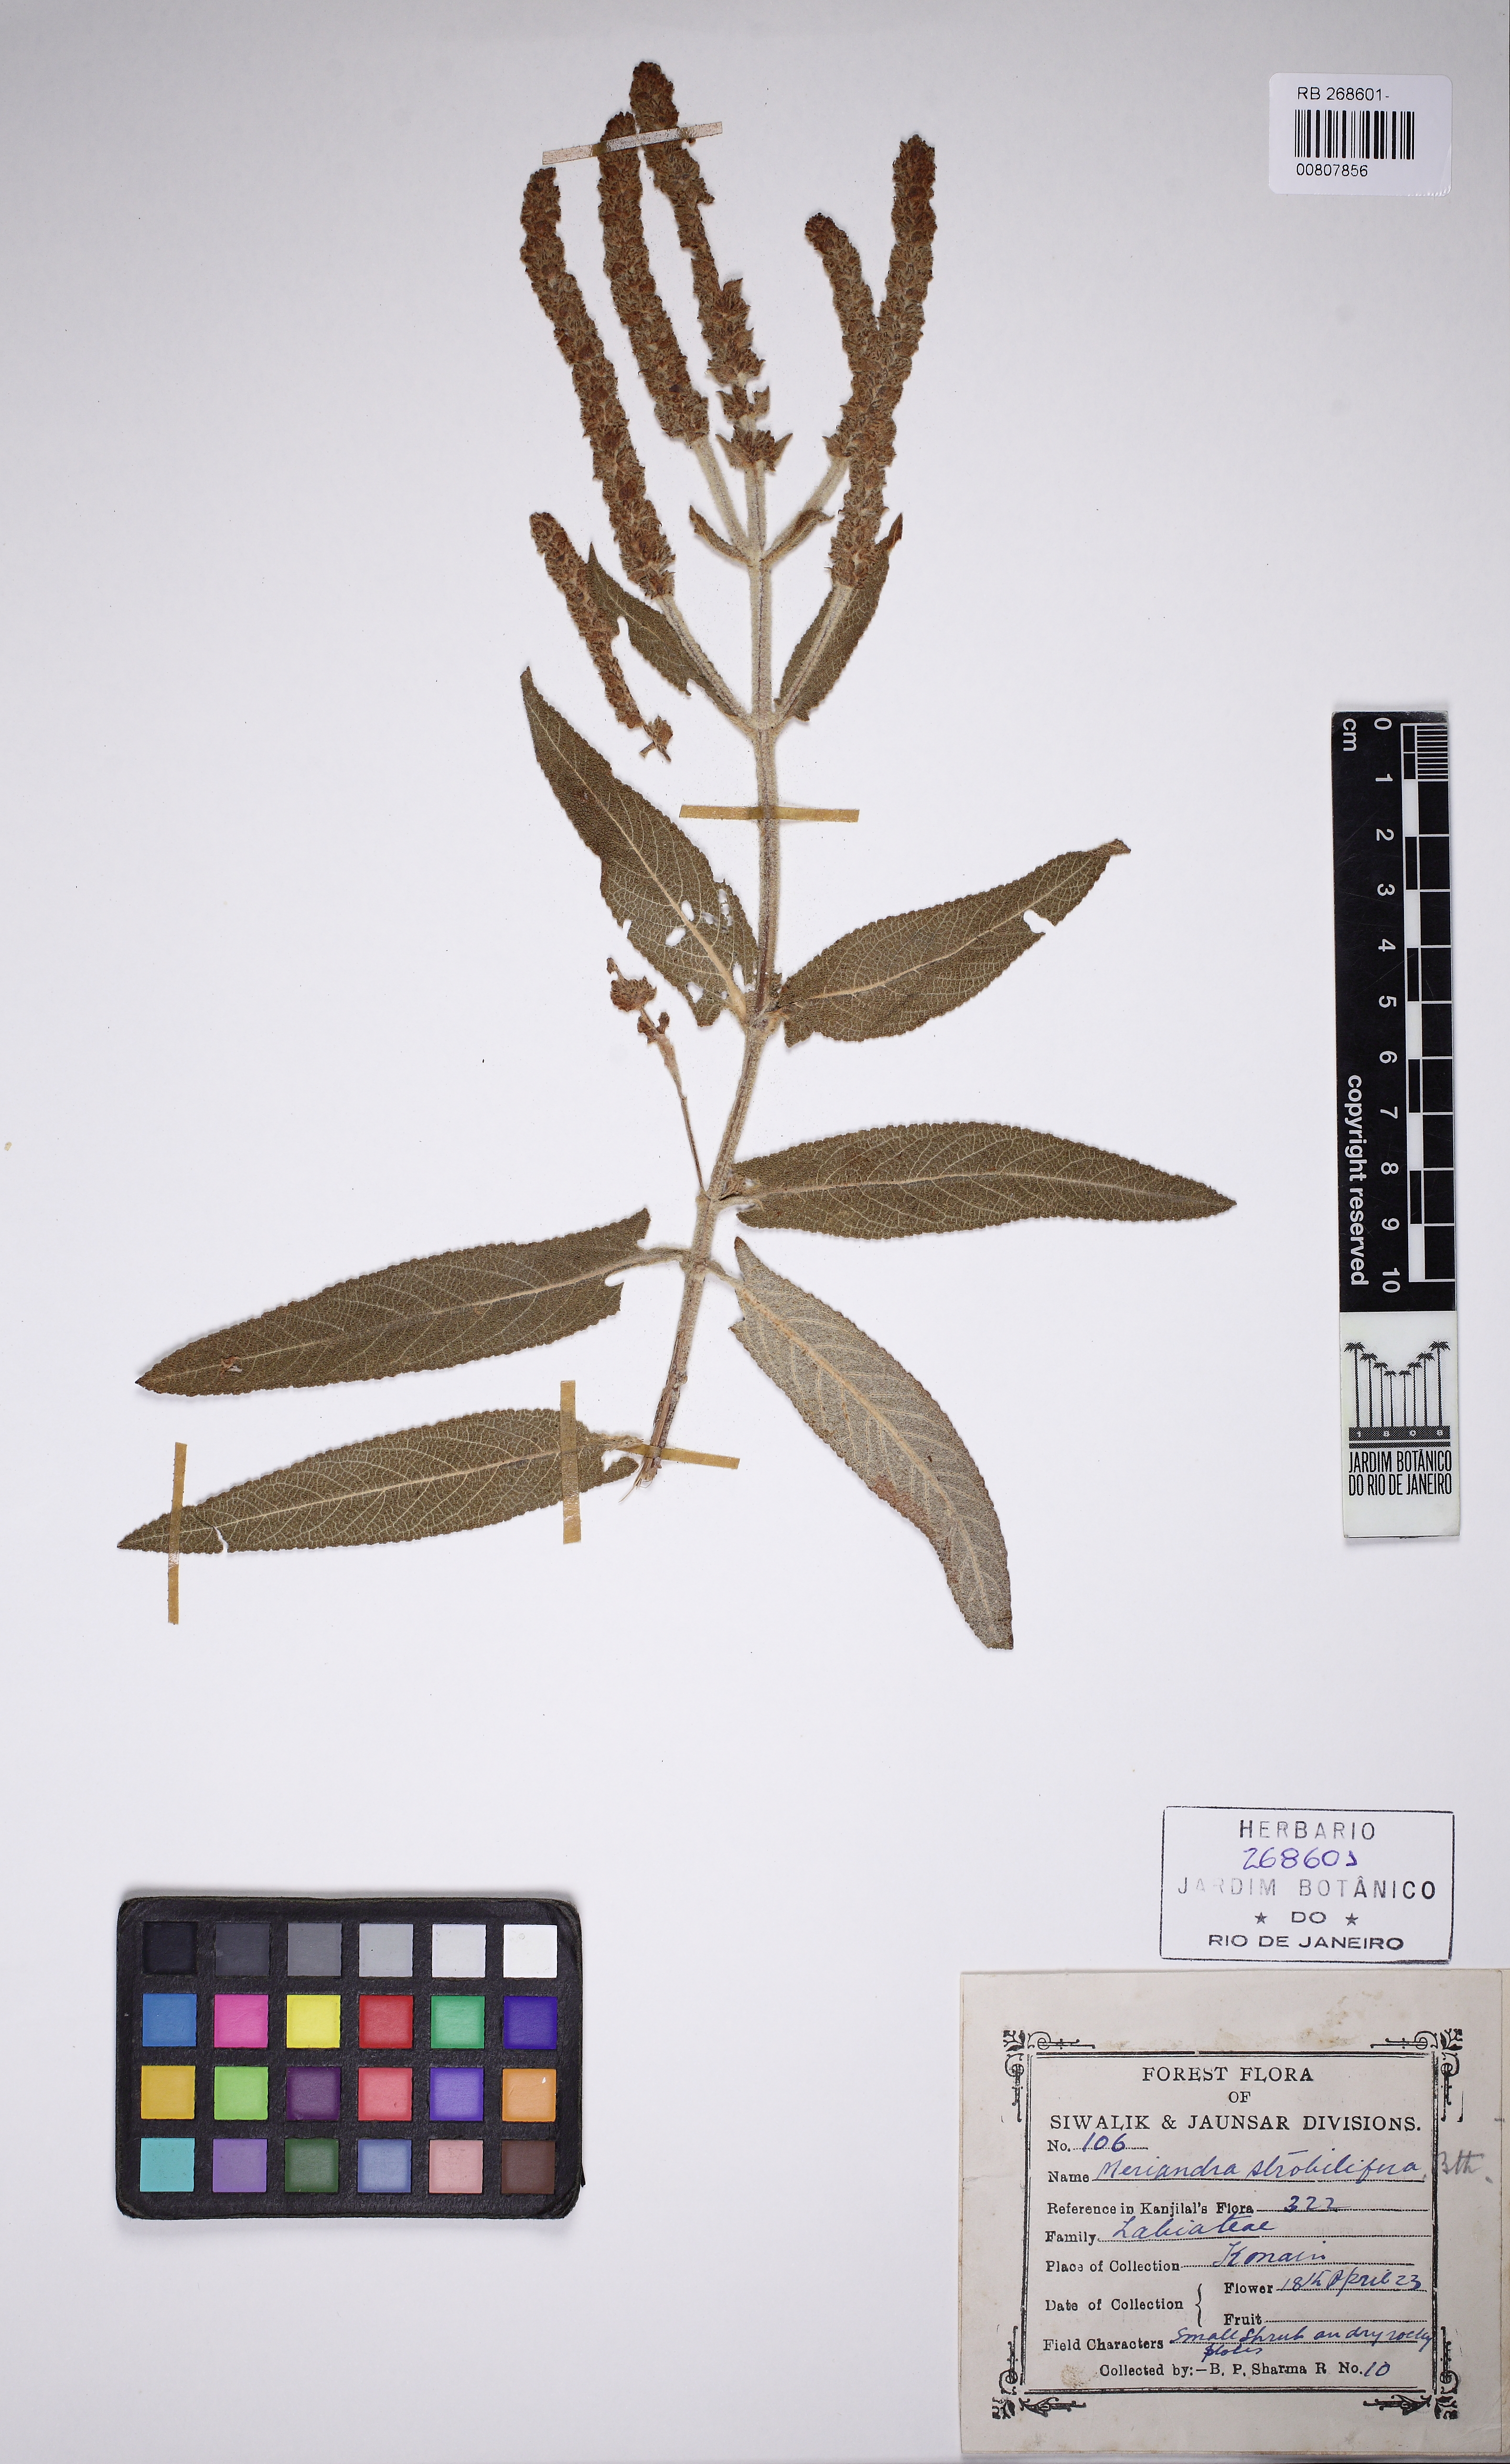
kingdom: Plantae
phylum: Tracheophyta
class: Magnoliopsida
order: Lamiales
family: Lamiaceae
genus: Salvia
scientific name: Salvia strobilifera
